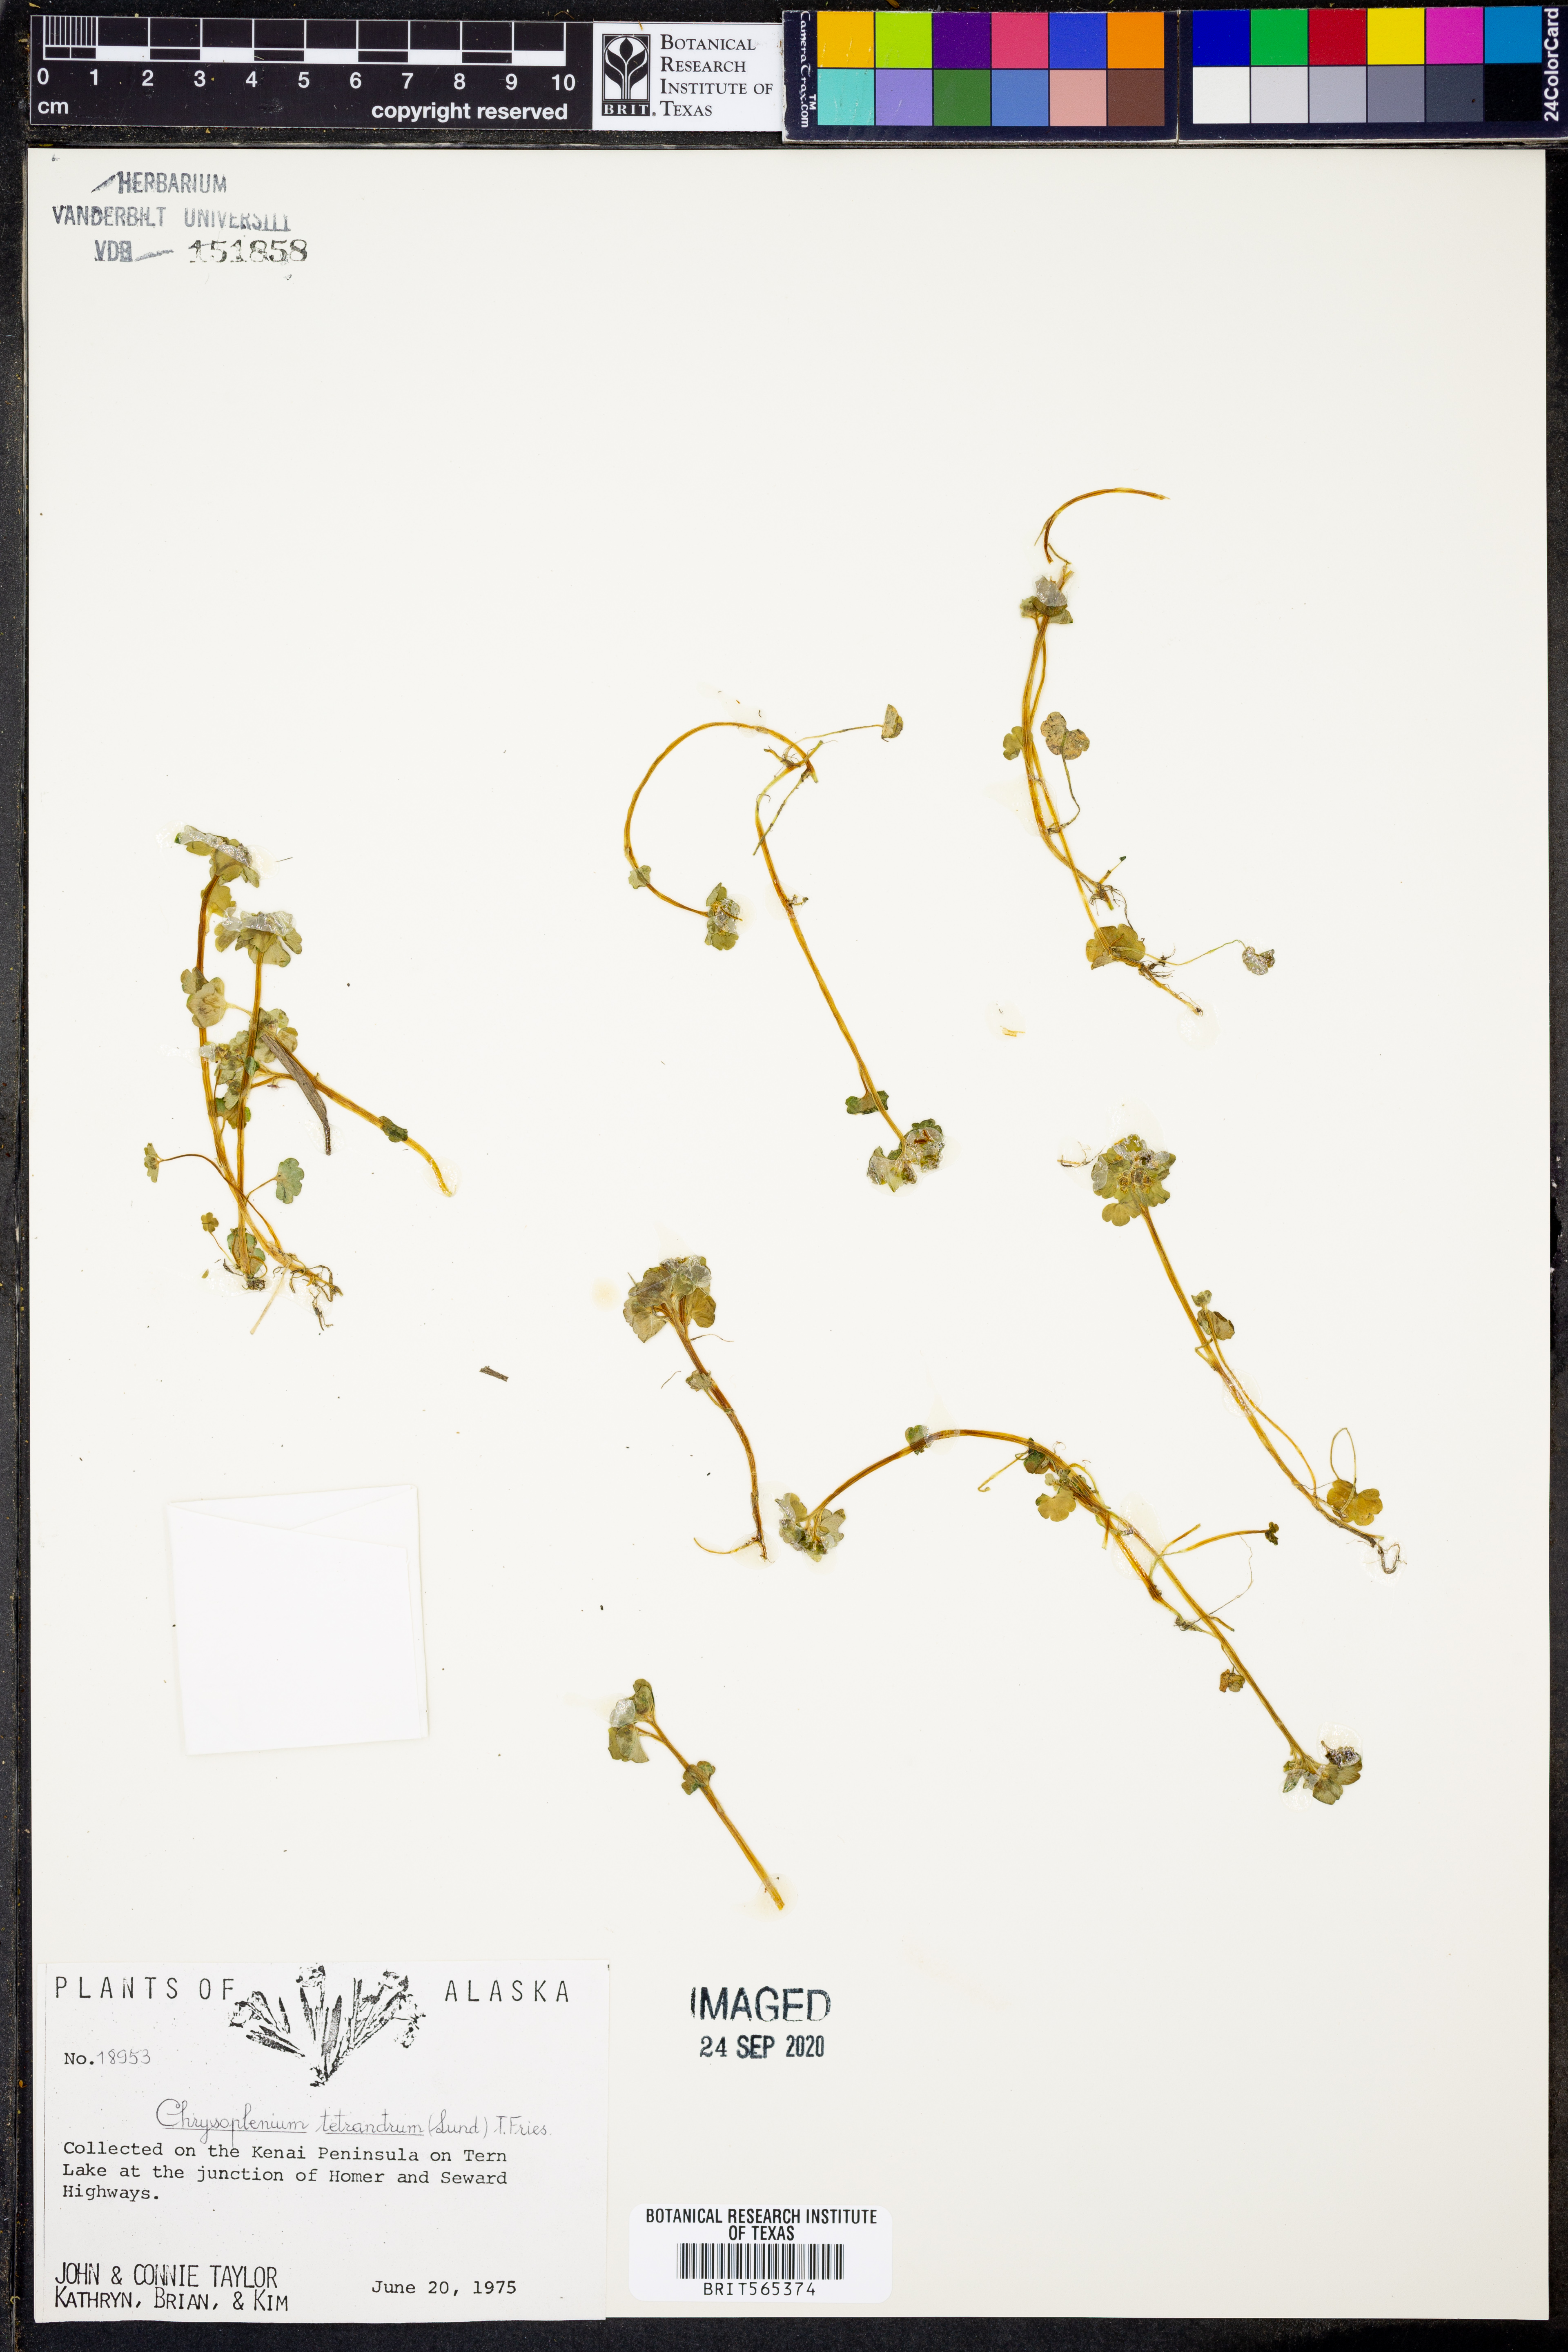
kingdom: Plantae
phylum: Tracheophyta
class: Magnoliopsida
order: Saxifragales
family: Saxifragaceae
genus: Chrysosplenium
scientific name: Chrysosplenium tetrandrum
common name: Green saxifrage
